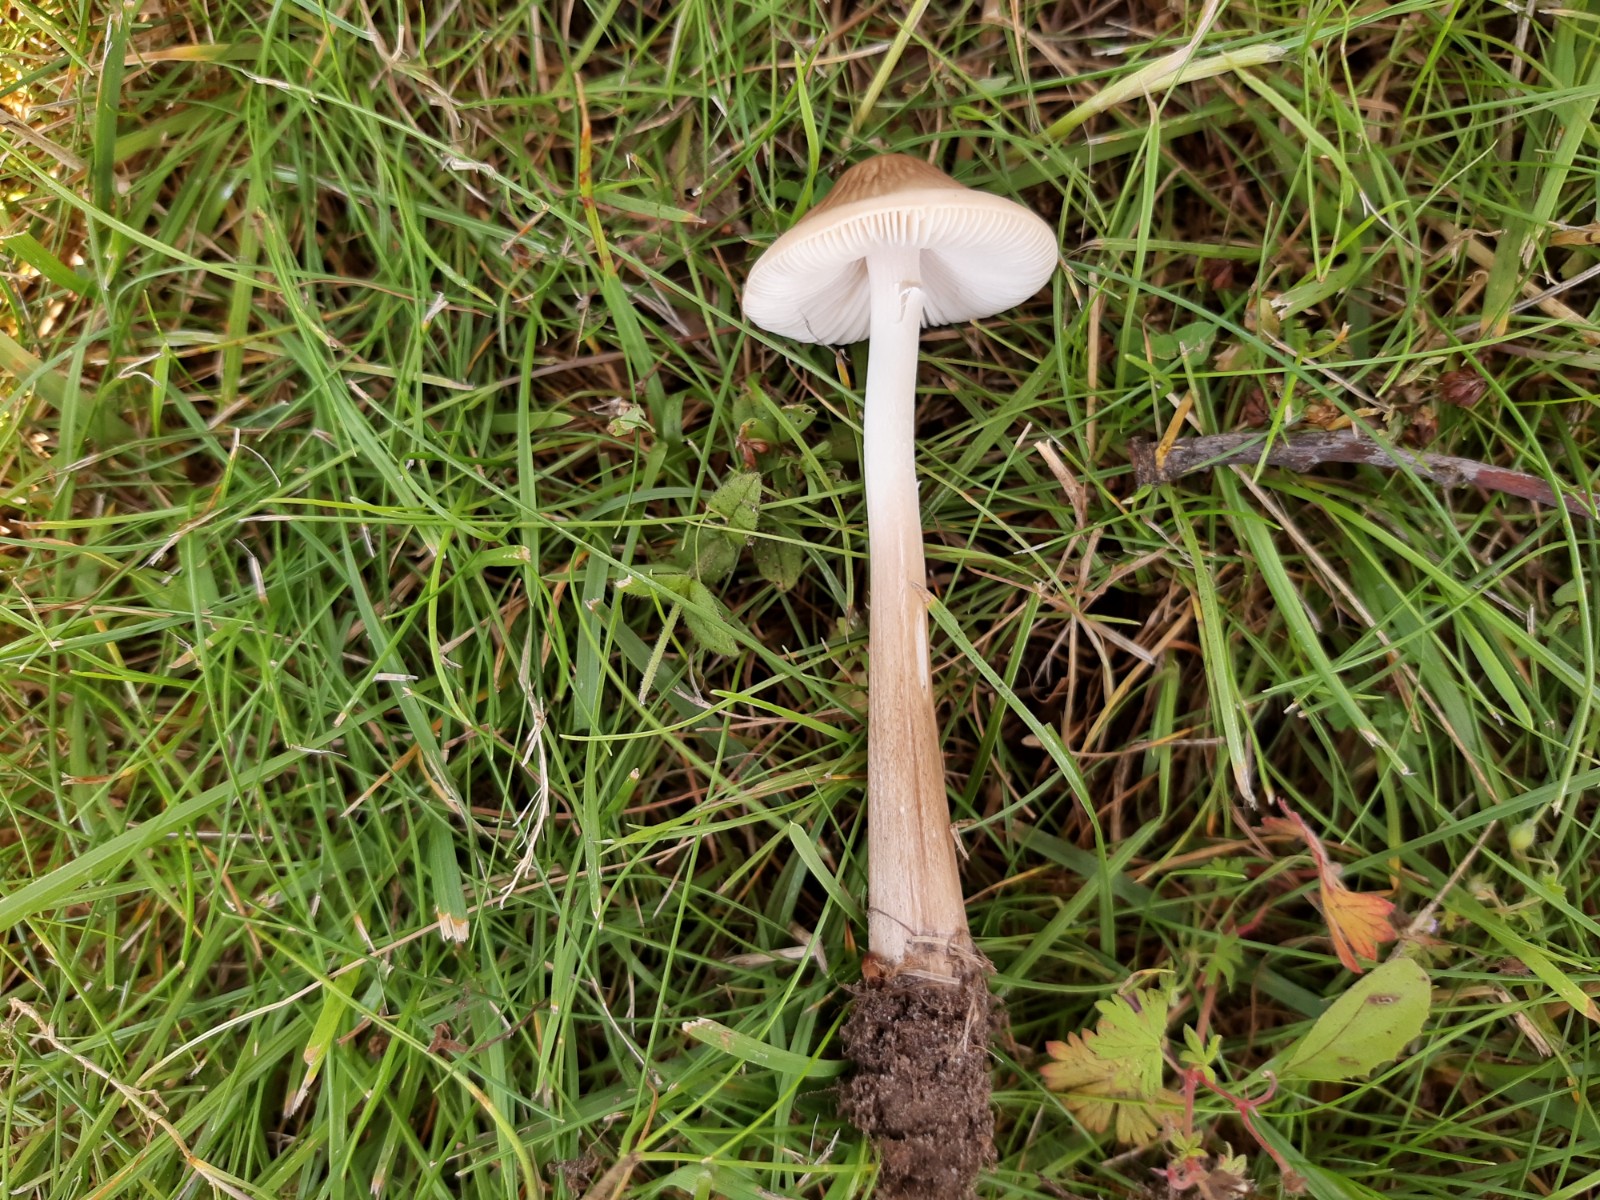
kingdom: Fungi
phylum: Basidiomycota
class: Agaricomycetes
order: Agaricales
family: Physalacriaceae
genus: Hymenopellis
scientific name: Hymenopellis radicata
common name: almindelig pælerodshat
